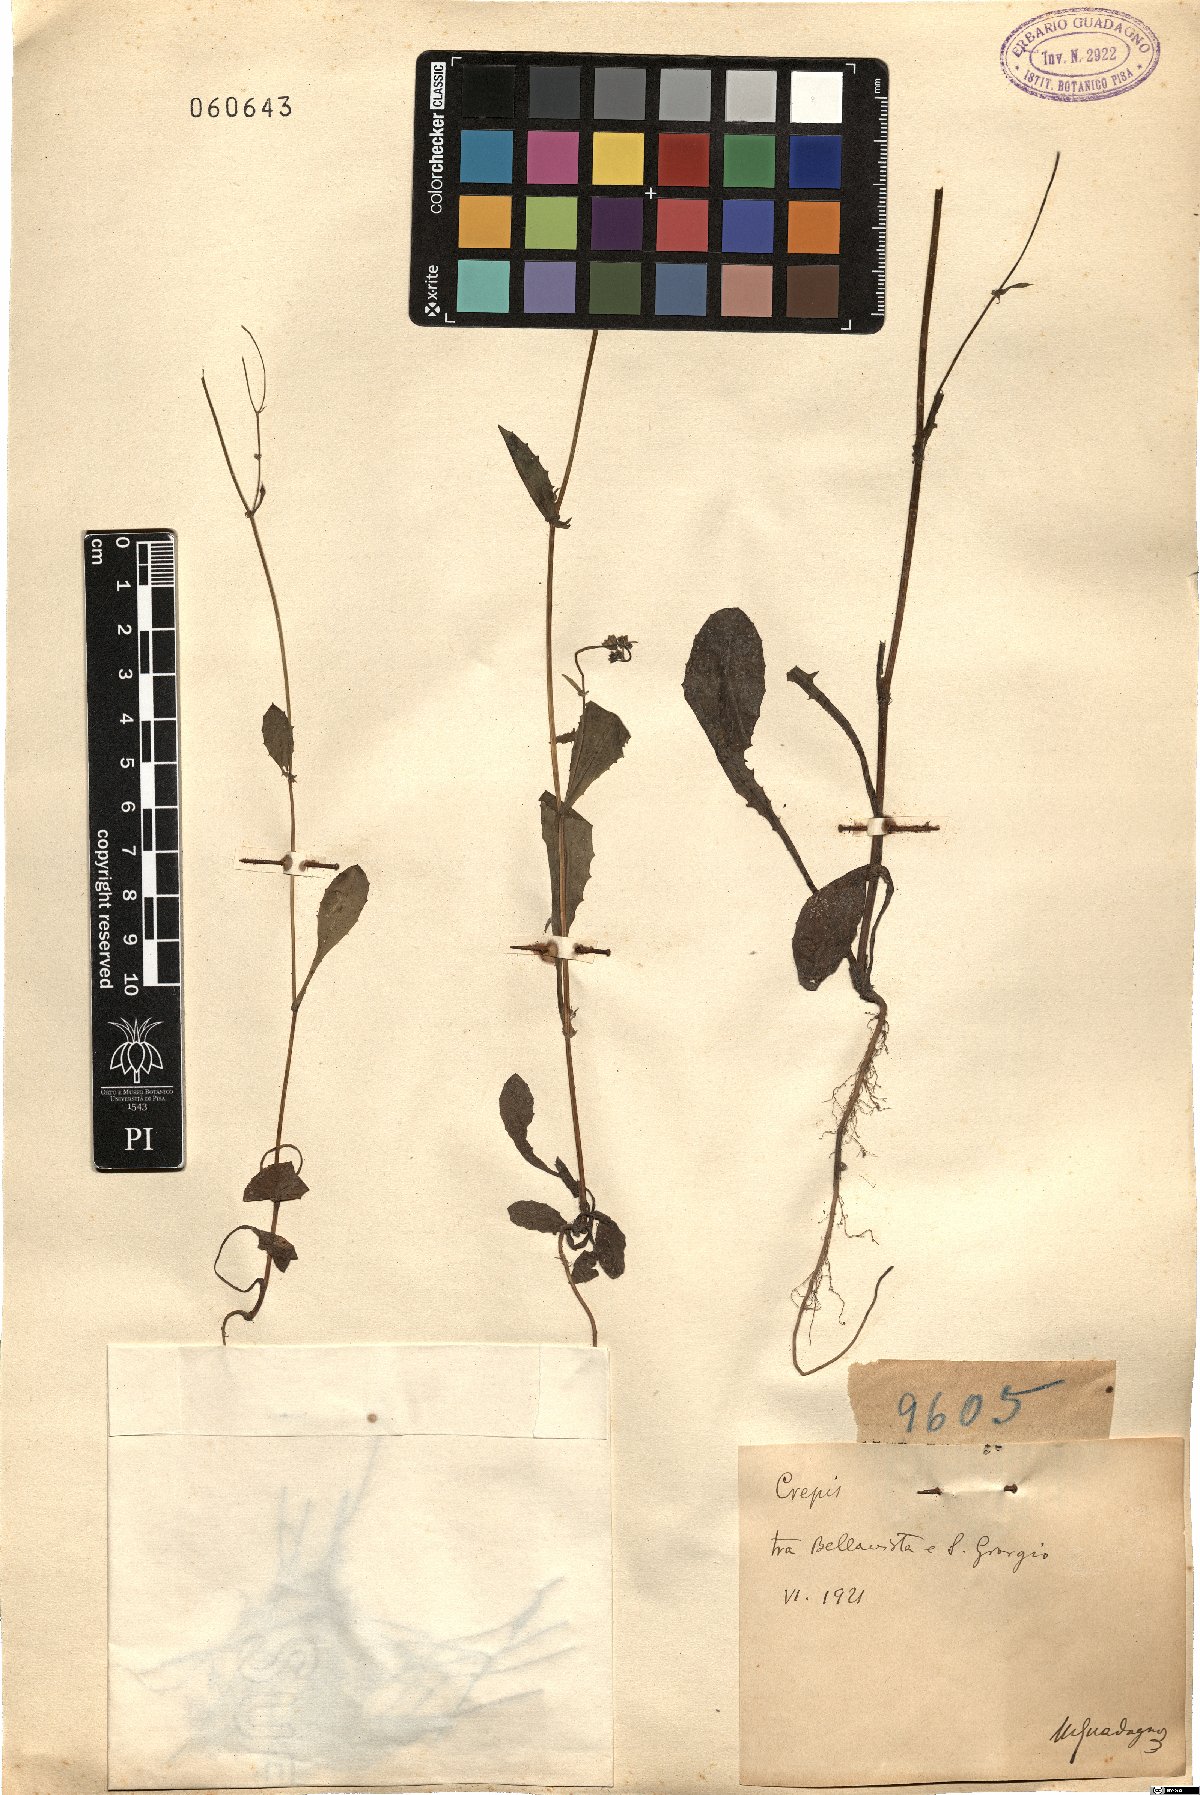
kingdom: Plantae
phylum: Tracheophyta
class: Magnoliopsida
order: Asterales
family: Asteraceae
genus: Crepis
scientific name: Crepis
